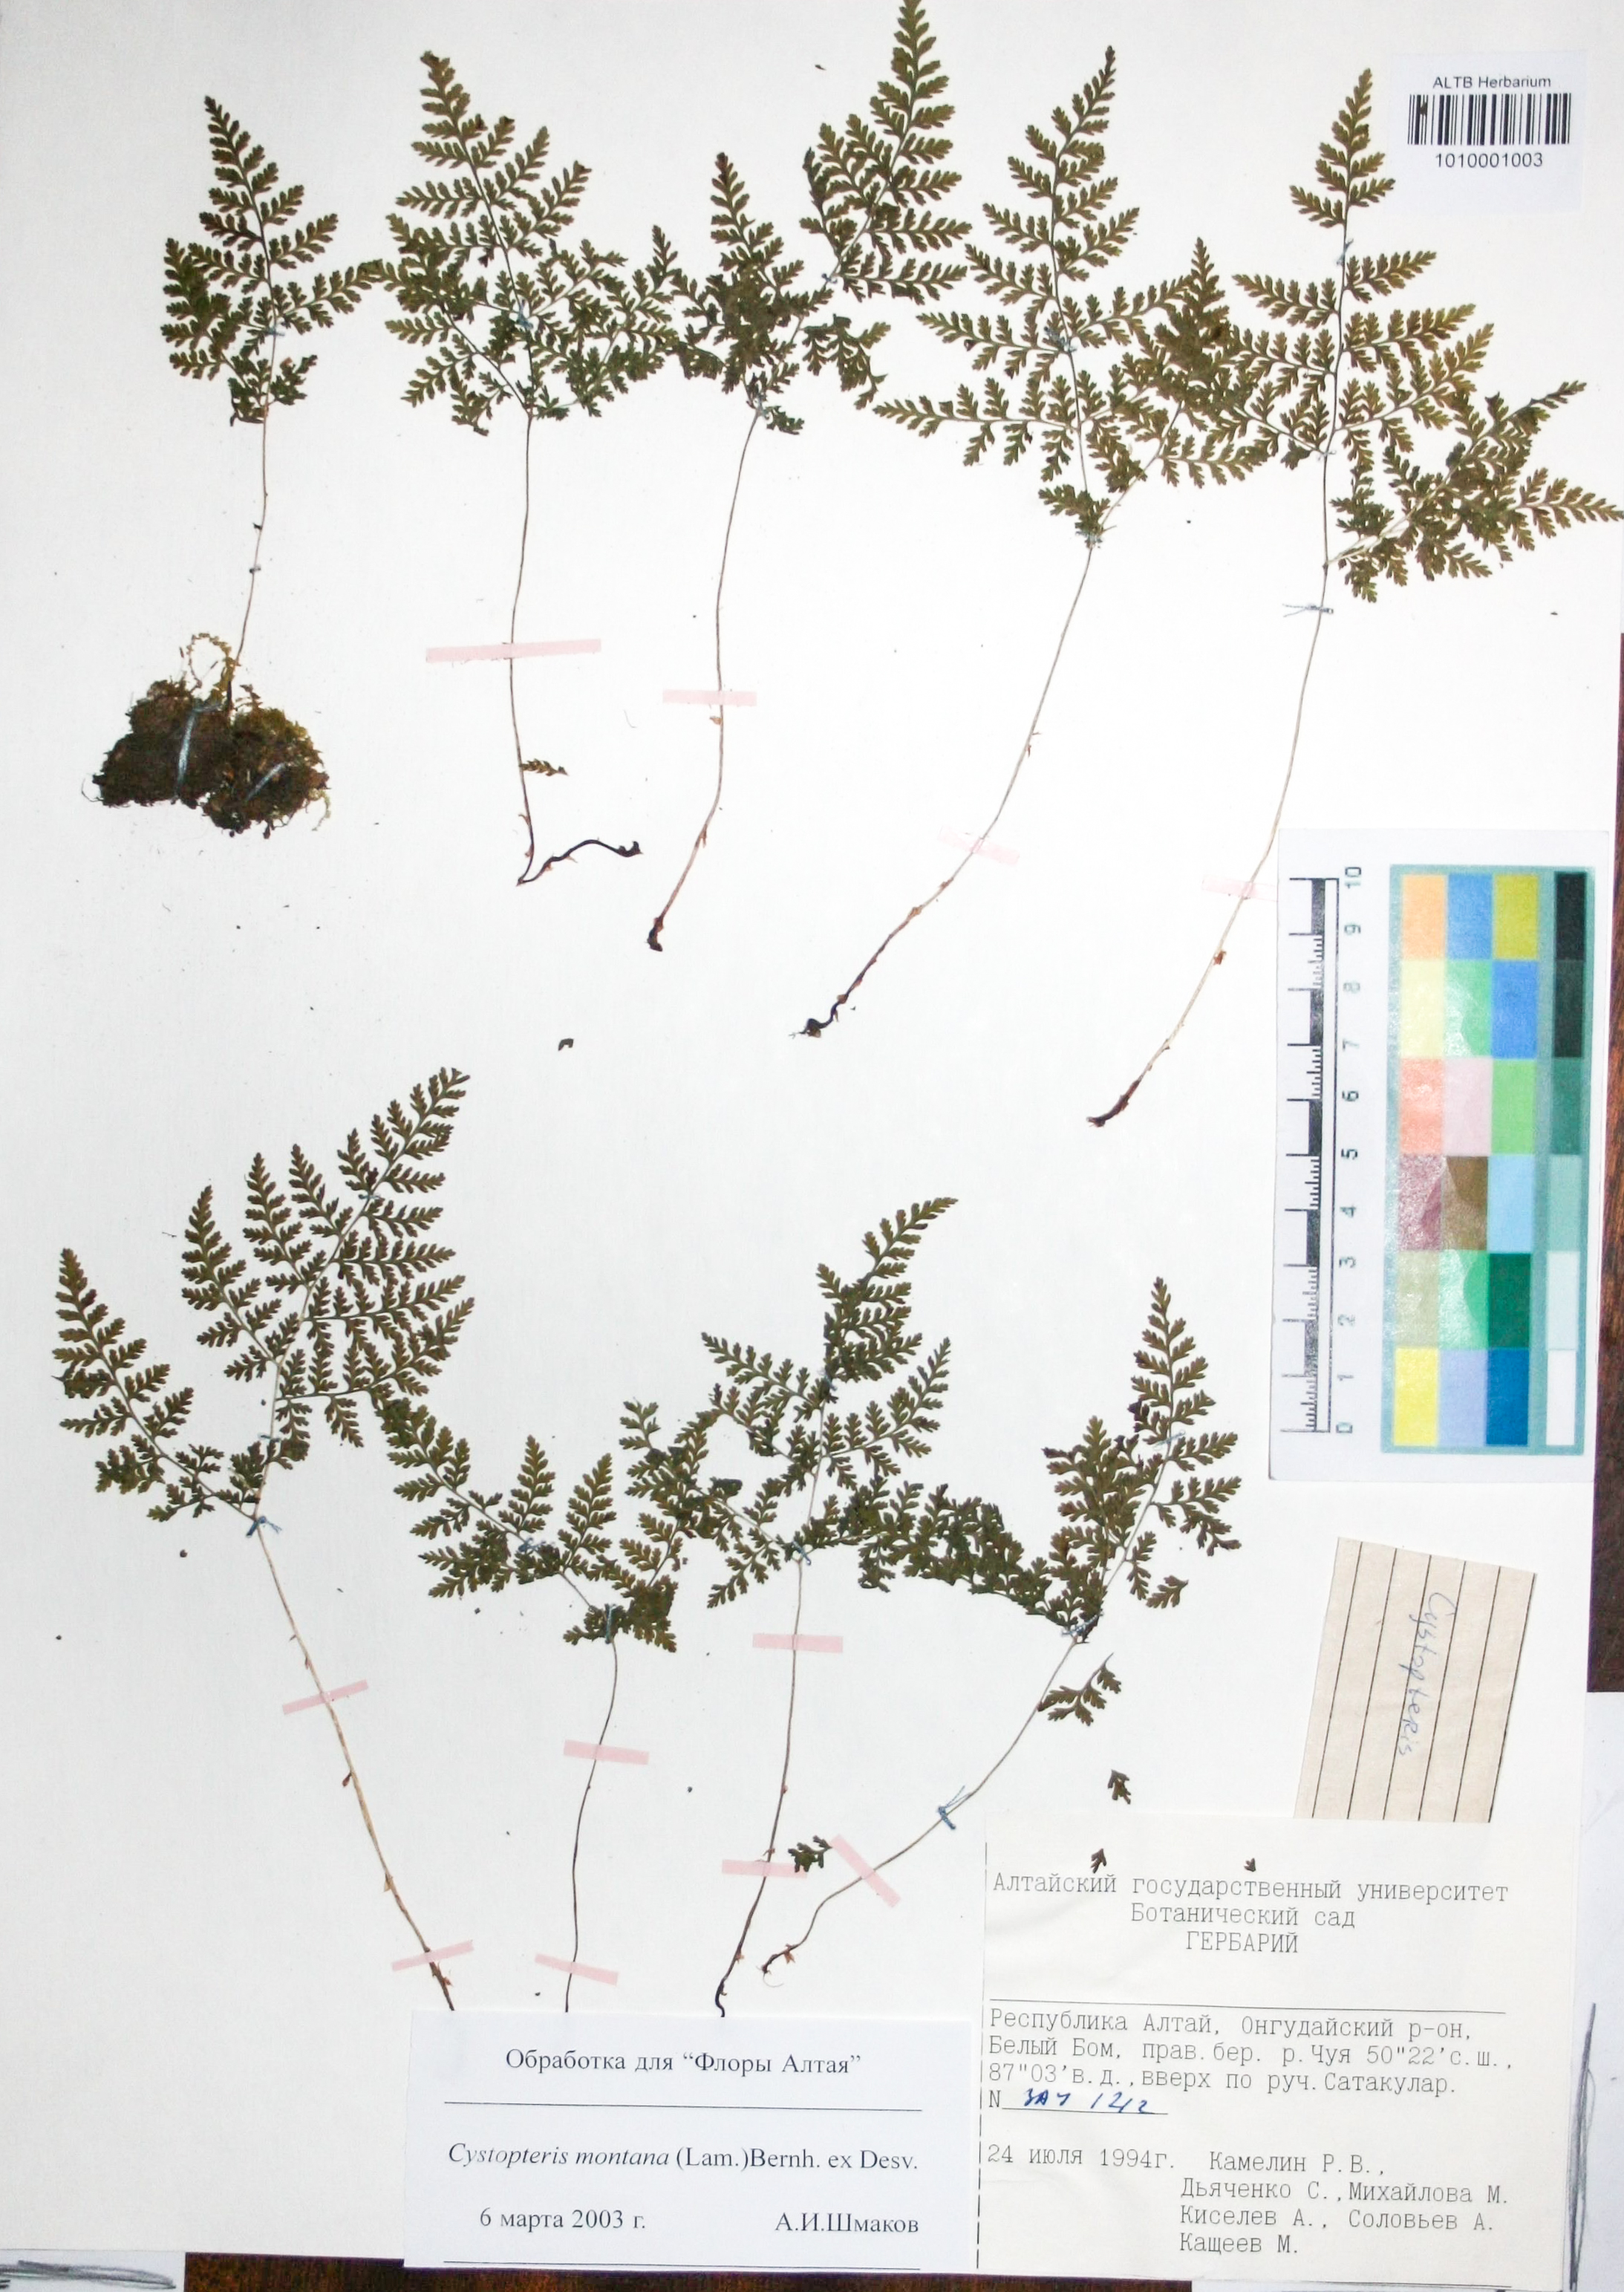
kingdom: Plantae
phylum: Tracheophyta
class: Polypodiopsida
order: Polypodiales
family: Cystopteridaceae
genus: Cystopteris
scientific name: Cystopteris montana
